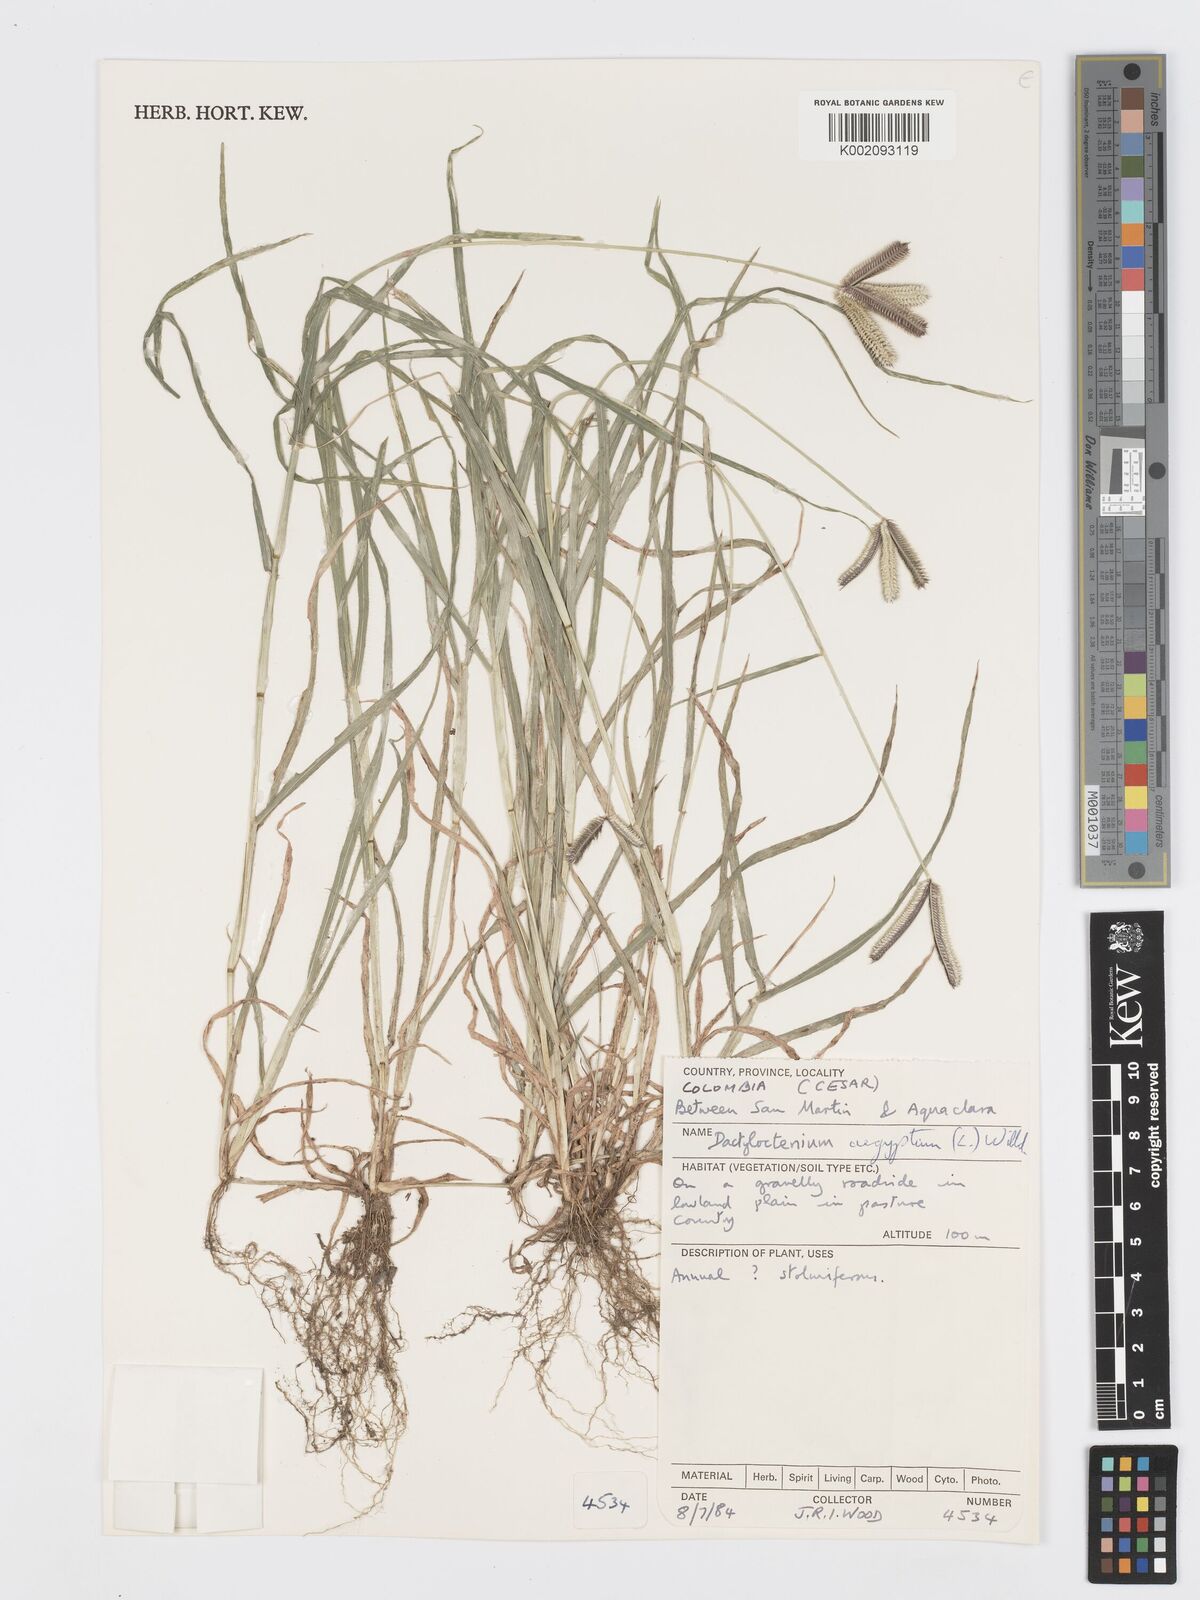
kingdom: Plantae
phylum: Tracheophyta
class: Liliopsida
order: Poales
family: Poaceae
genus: Dactyloctenium
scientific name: Dactyloctenium aegyptium
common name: Egyptian grass
